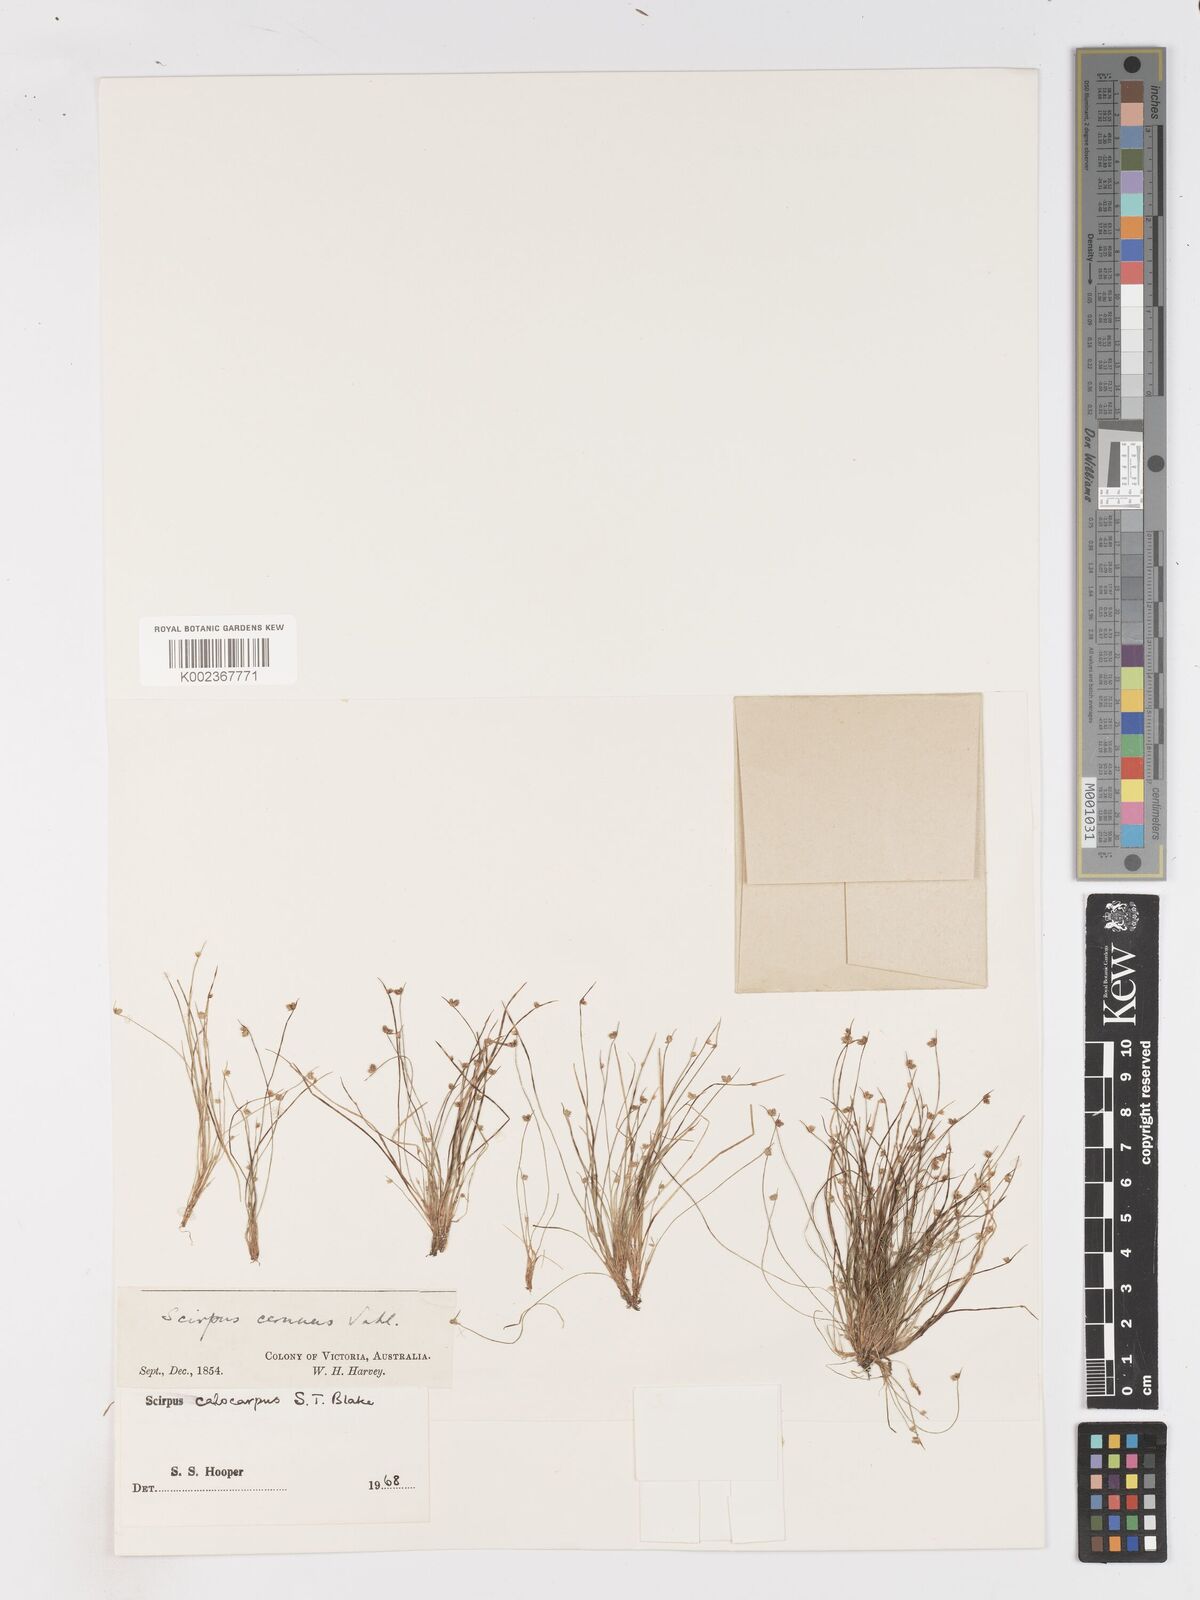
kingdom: Plantae
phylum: Tracheophyta
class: Liliopsida
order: Poales
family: Cyperaceae
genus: Isolepis
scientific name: Isolepis multicaulis
